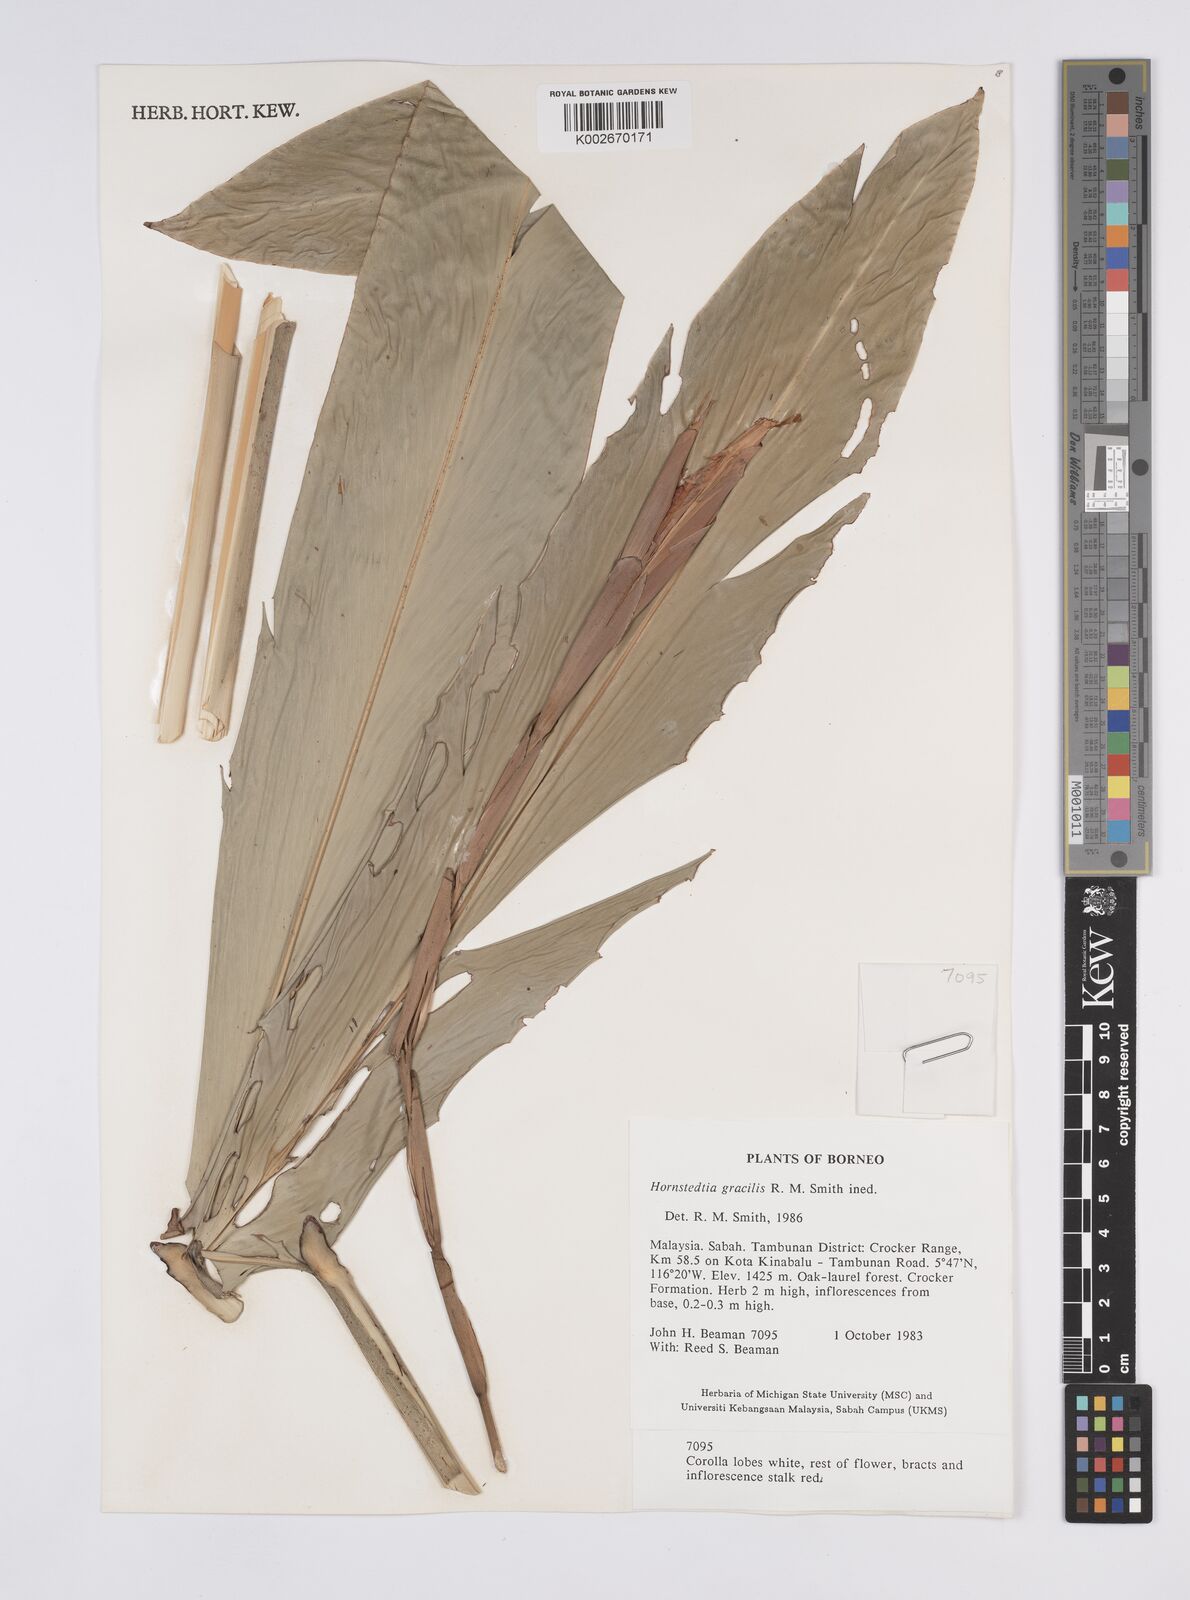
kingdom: Plantae
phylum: Tracheophyta
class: Liliopsida
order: Zingiberales
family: Zingiberaceae
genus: Hornstedtia
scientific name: Hornstedtia gracilis
